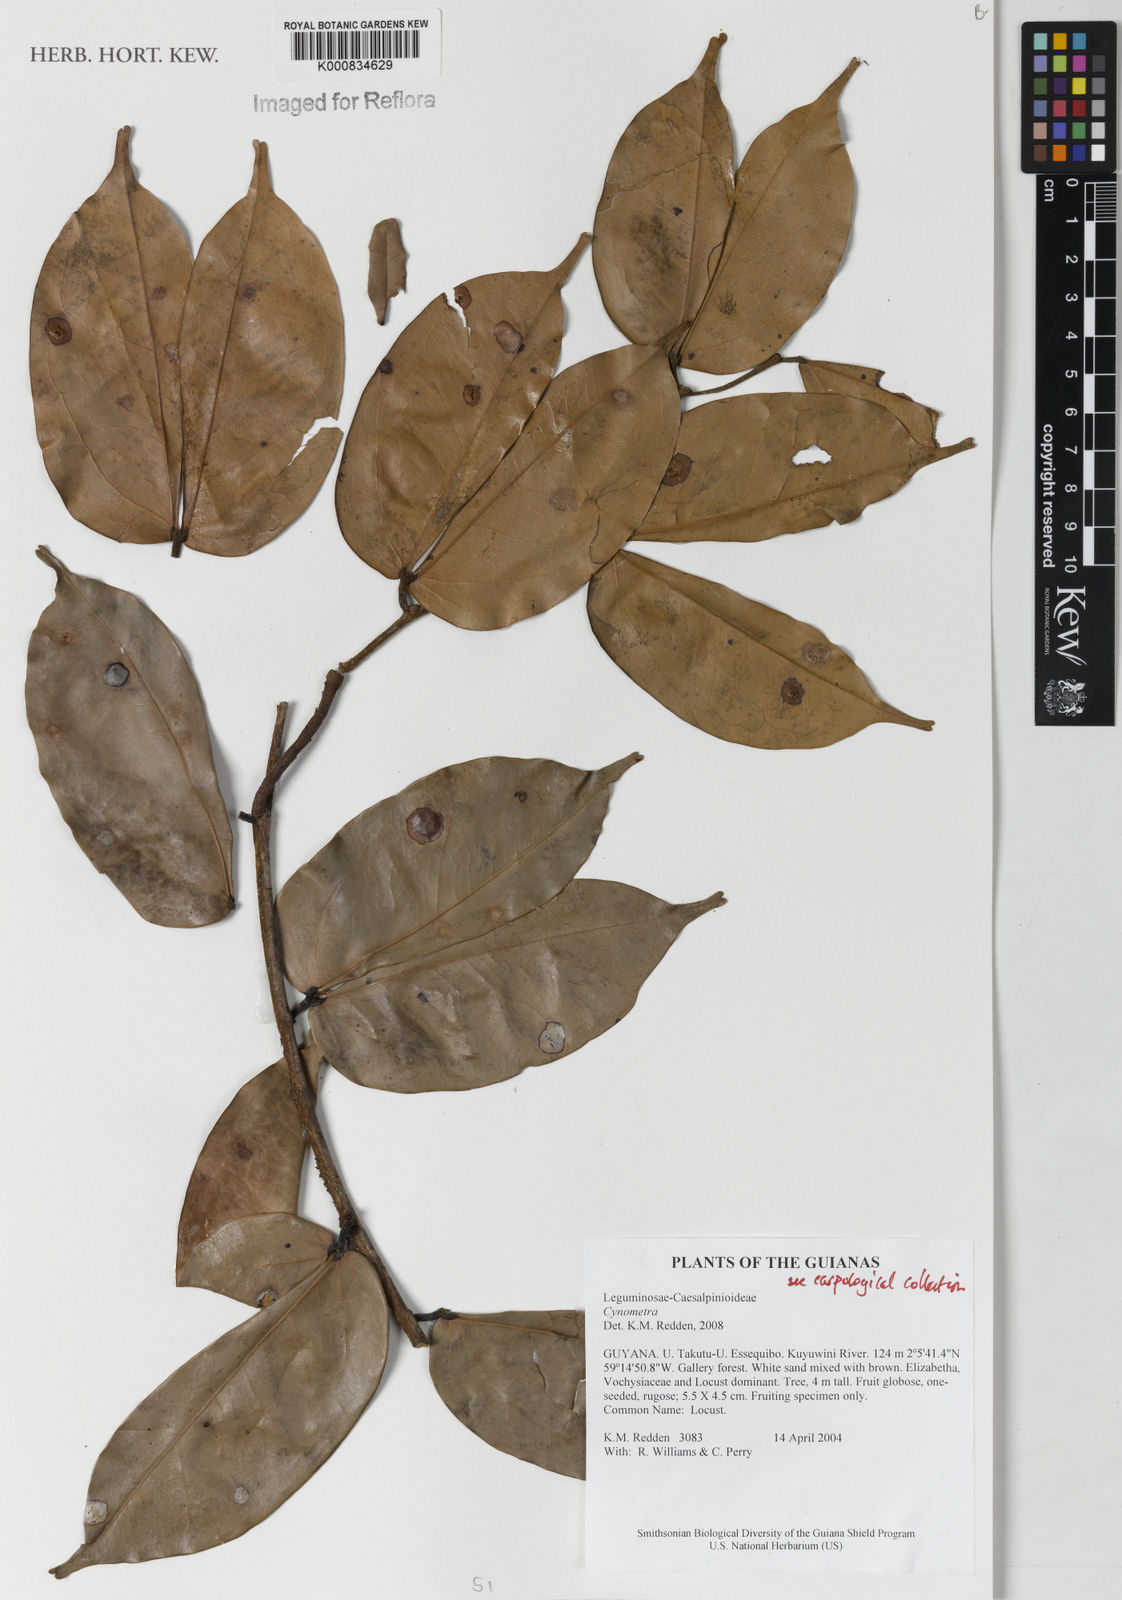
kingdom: Plantae
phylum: Tracheophyta
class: Magnoliopsida
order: Fabales
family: Fabaceae
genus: Cynometra
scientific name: Cynometra
